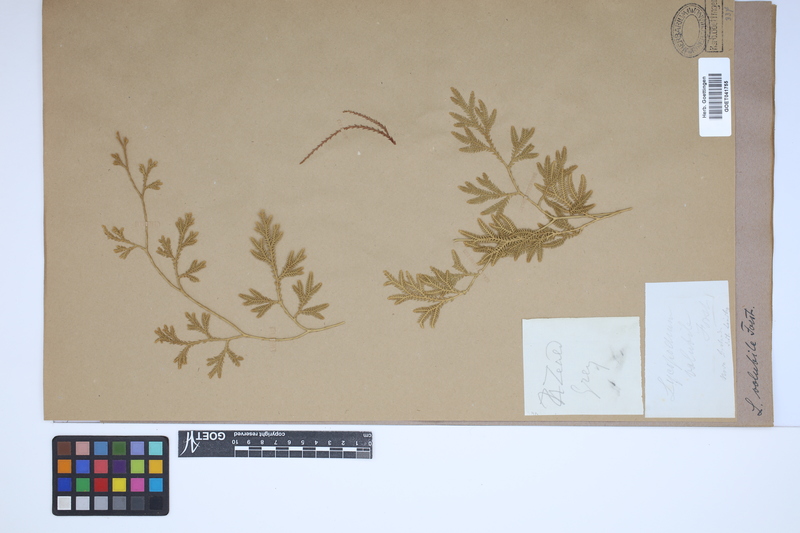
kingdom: Plantae
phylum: Tracheophyta
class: Lycopodiopsida
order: Lycopodiales
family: Lycopodiaceae
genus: Pseudodiphasium
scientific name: Pseudodiphasium volubile
